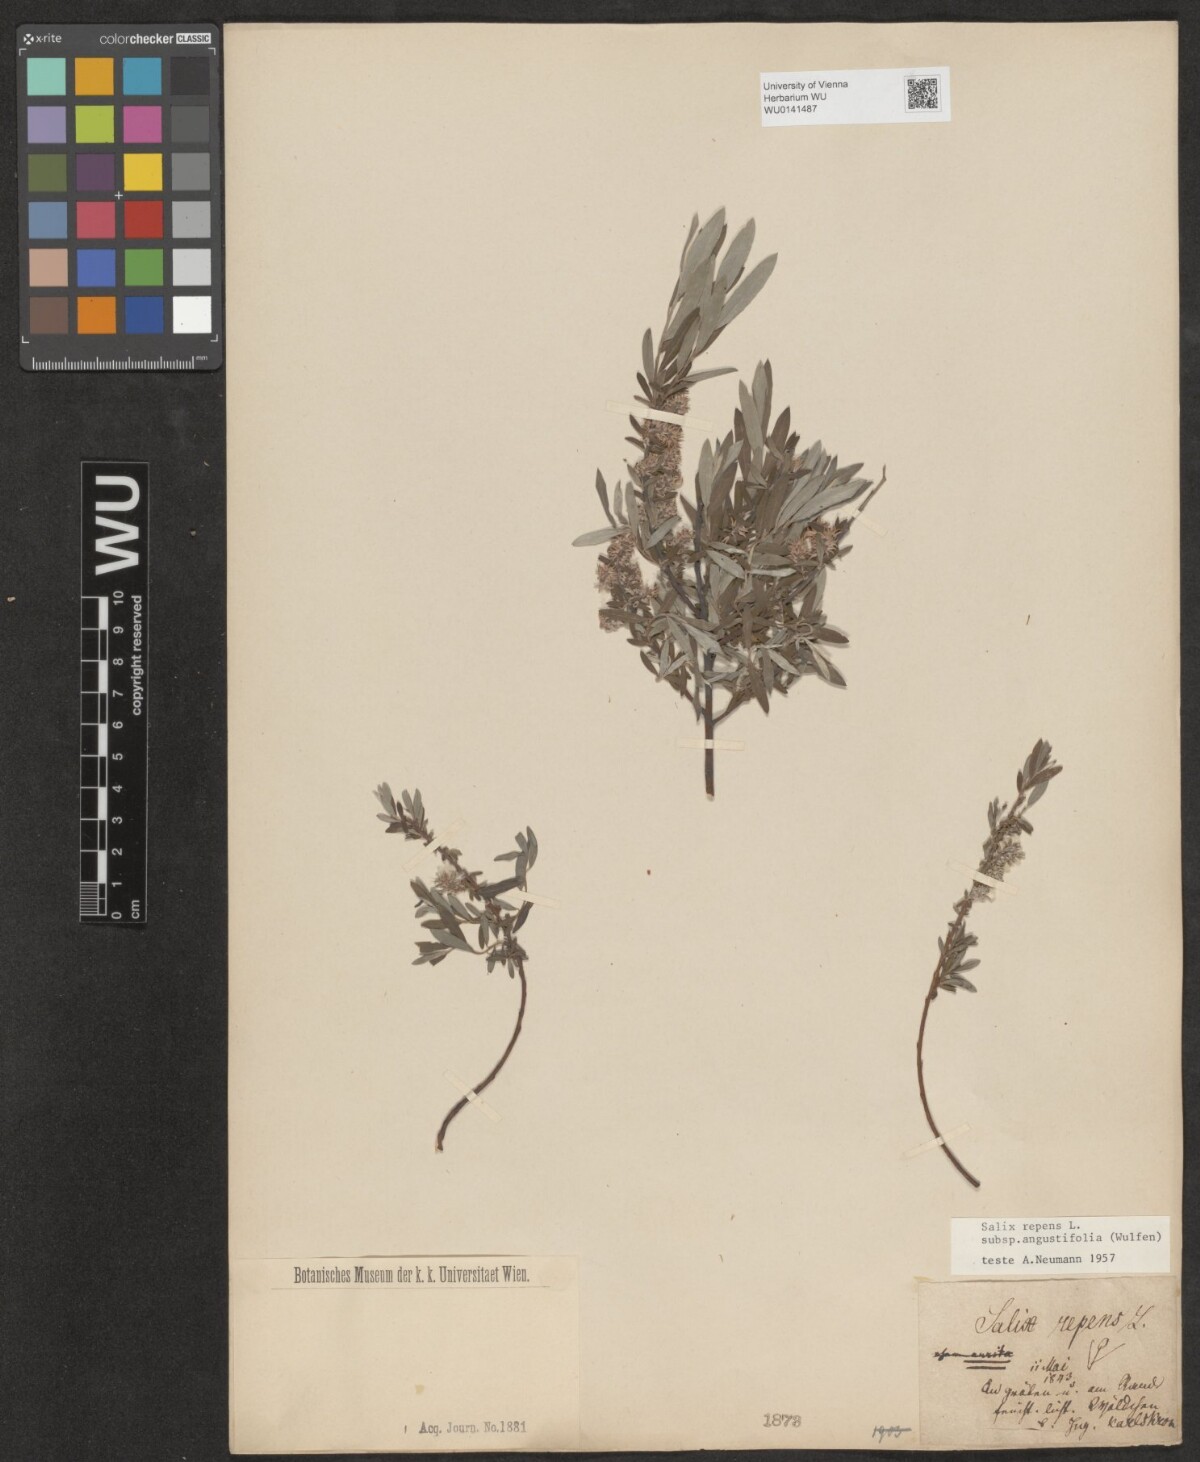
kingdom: Plantae
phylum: Tracheophyta
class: Magnoliopsida
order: Malpighiales
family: Salicaceae
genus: Salix
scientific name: Salix rosmarinifolia
